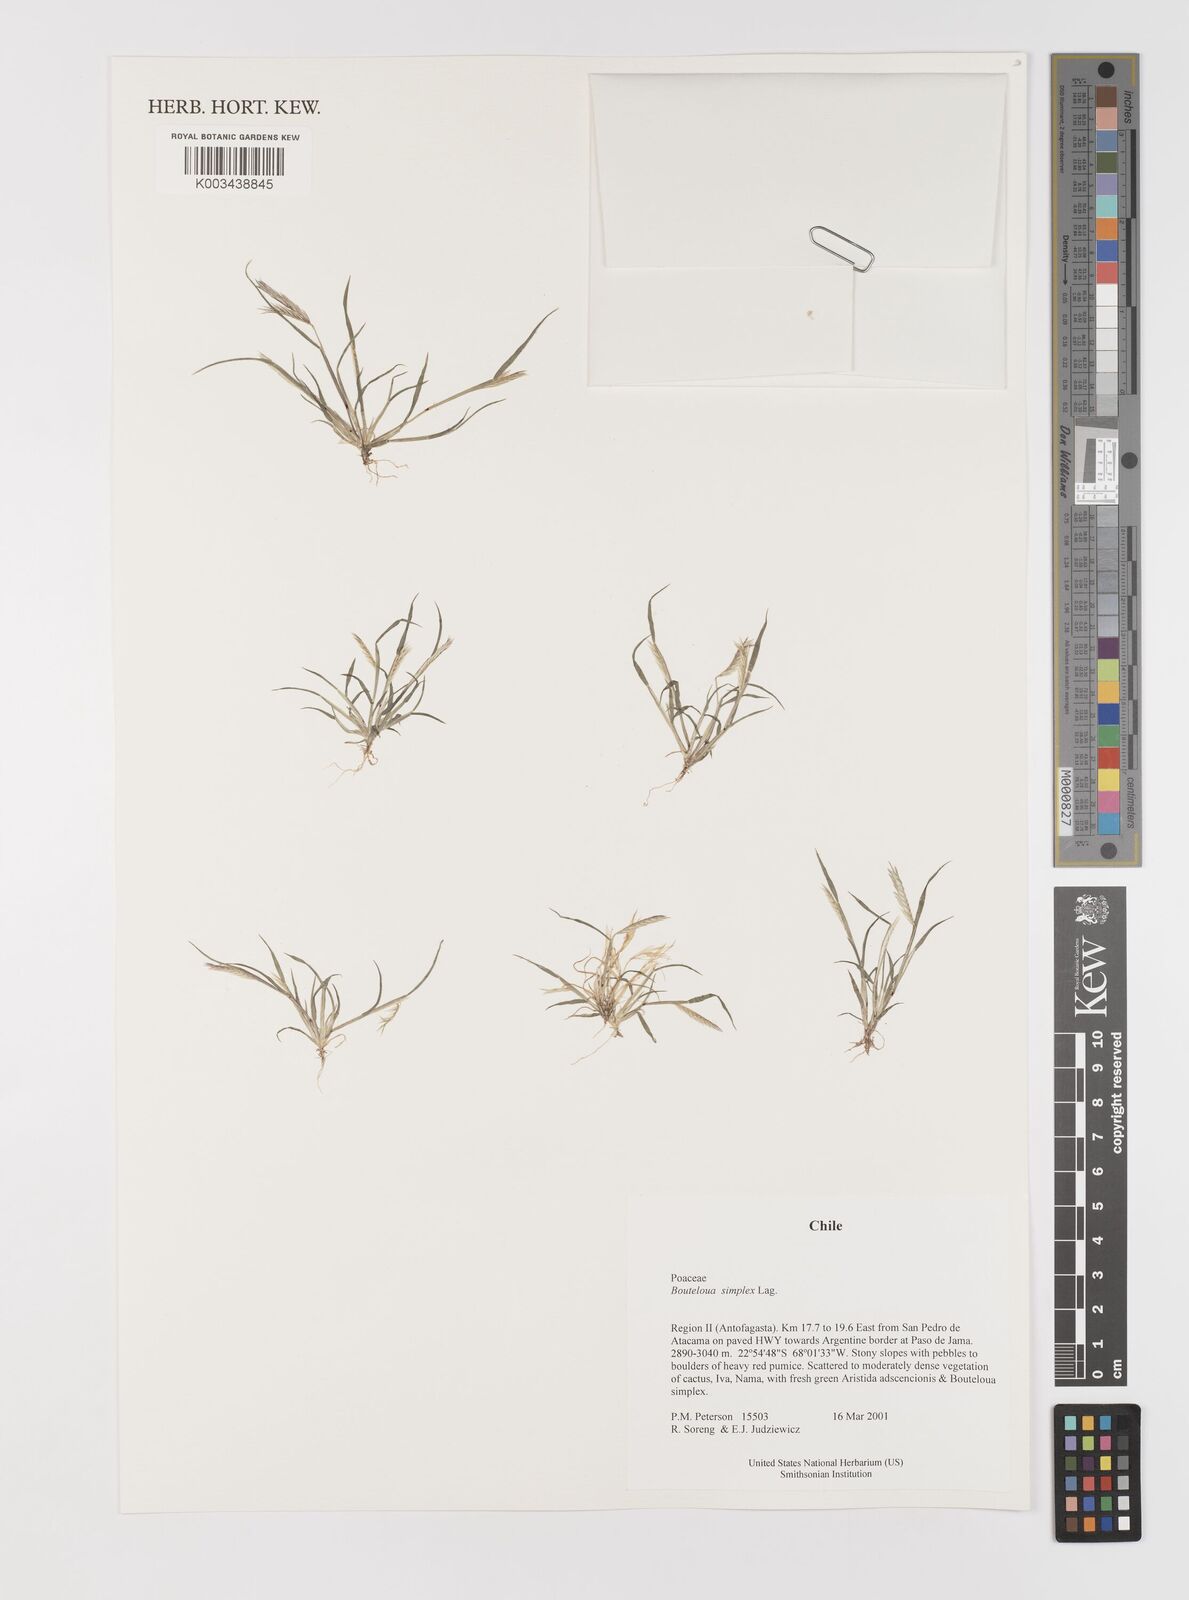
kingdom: Plantae
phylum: Tracheophyta
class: Liliopsida
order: Poales
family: Poaceae
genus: Bouteloua
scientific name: Bouteloua simplex
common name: Mat grama
